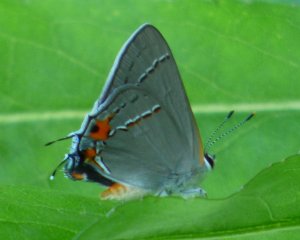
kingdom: Animalia
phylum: Arthropoda
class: Insecta
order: Lepidoptera
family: Lycaenidae
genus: Strymon
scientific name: Strymon melinus
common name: Gray Hairstreak
